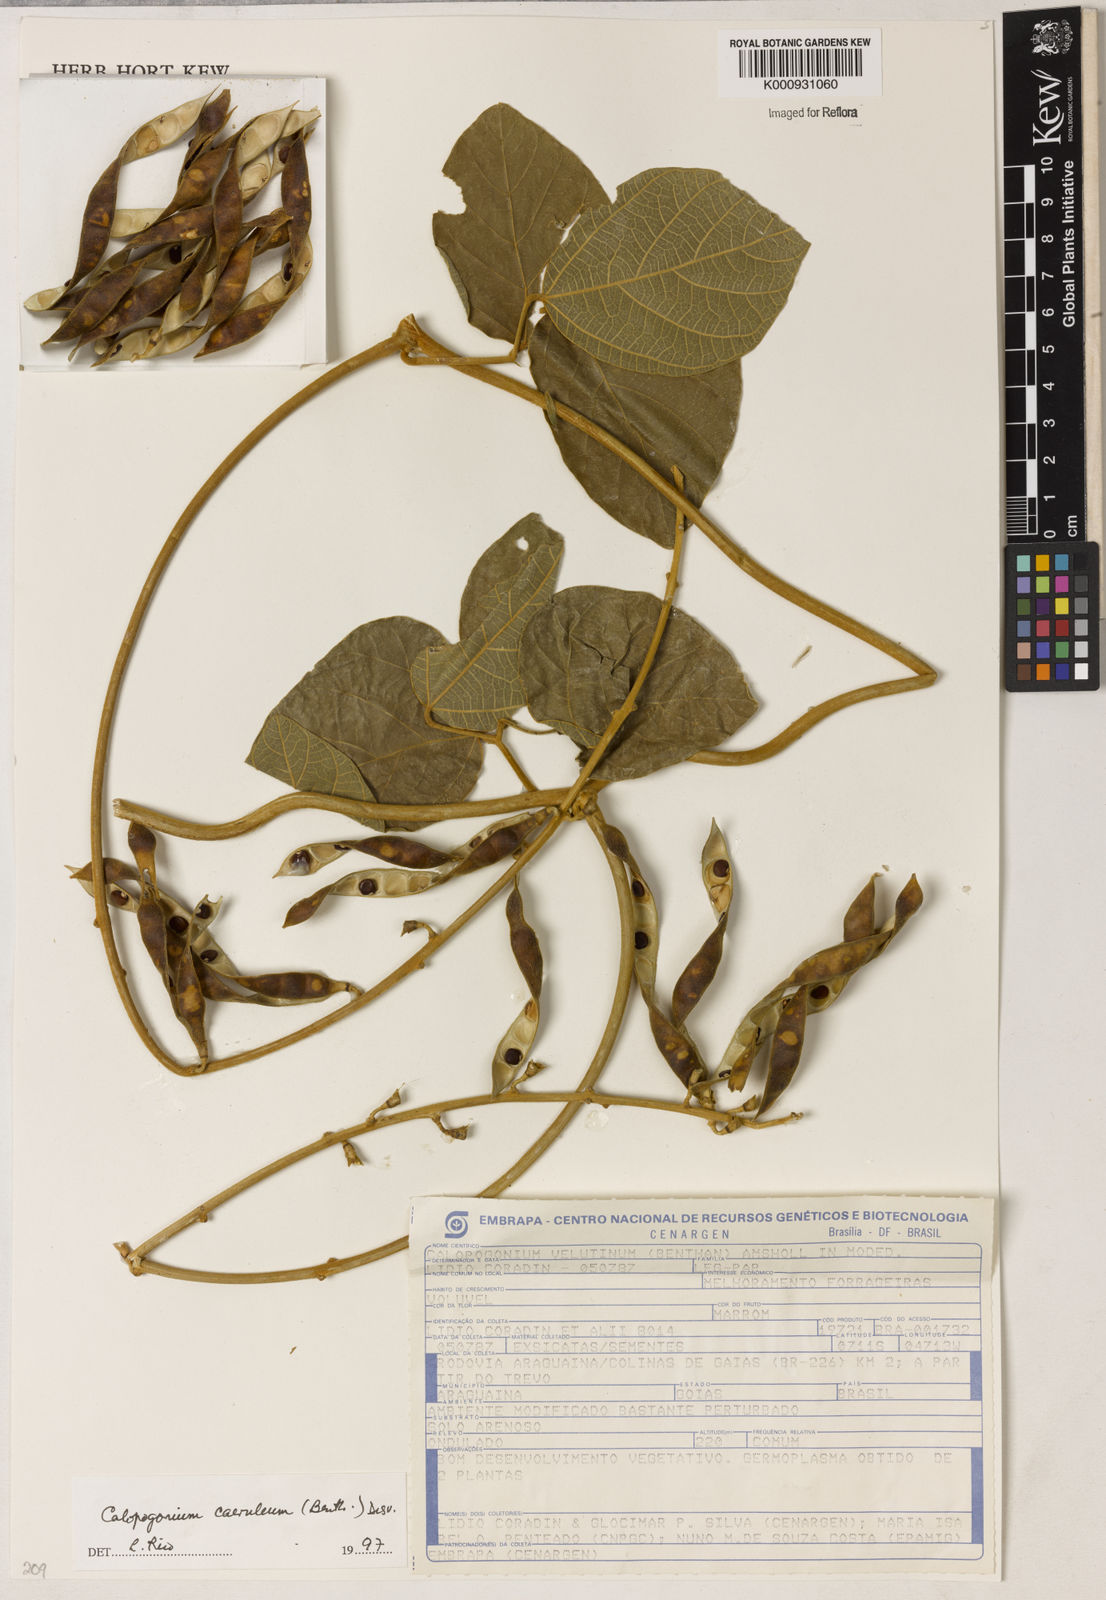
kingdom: Plantae
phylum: Tracheophyta
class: Magnoliopsida
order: Fabales
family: Fabaceae
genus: Calopogonium
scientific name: Calopogonium caeruleum
